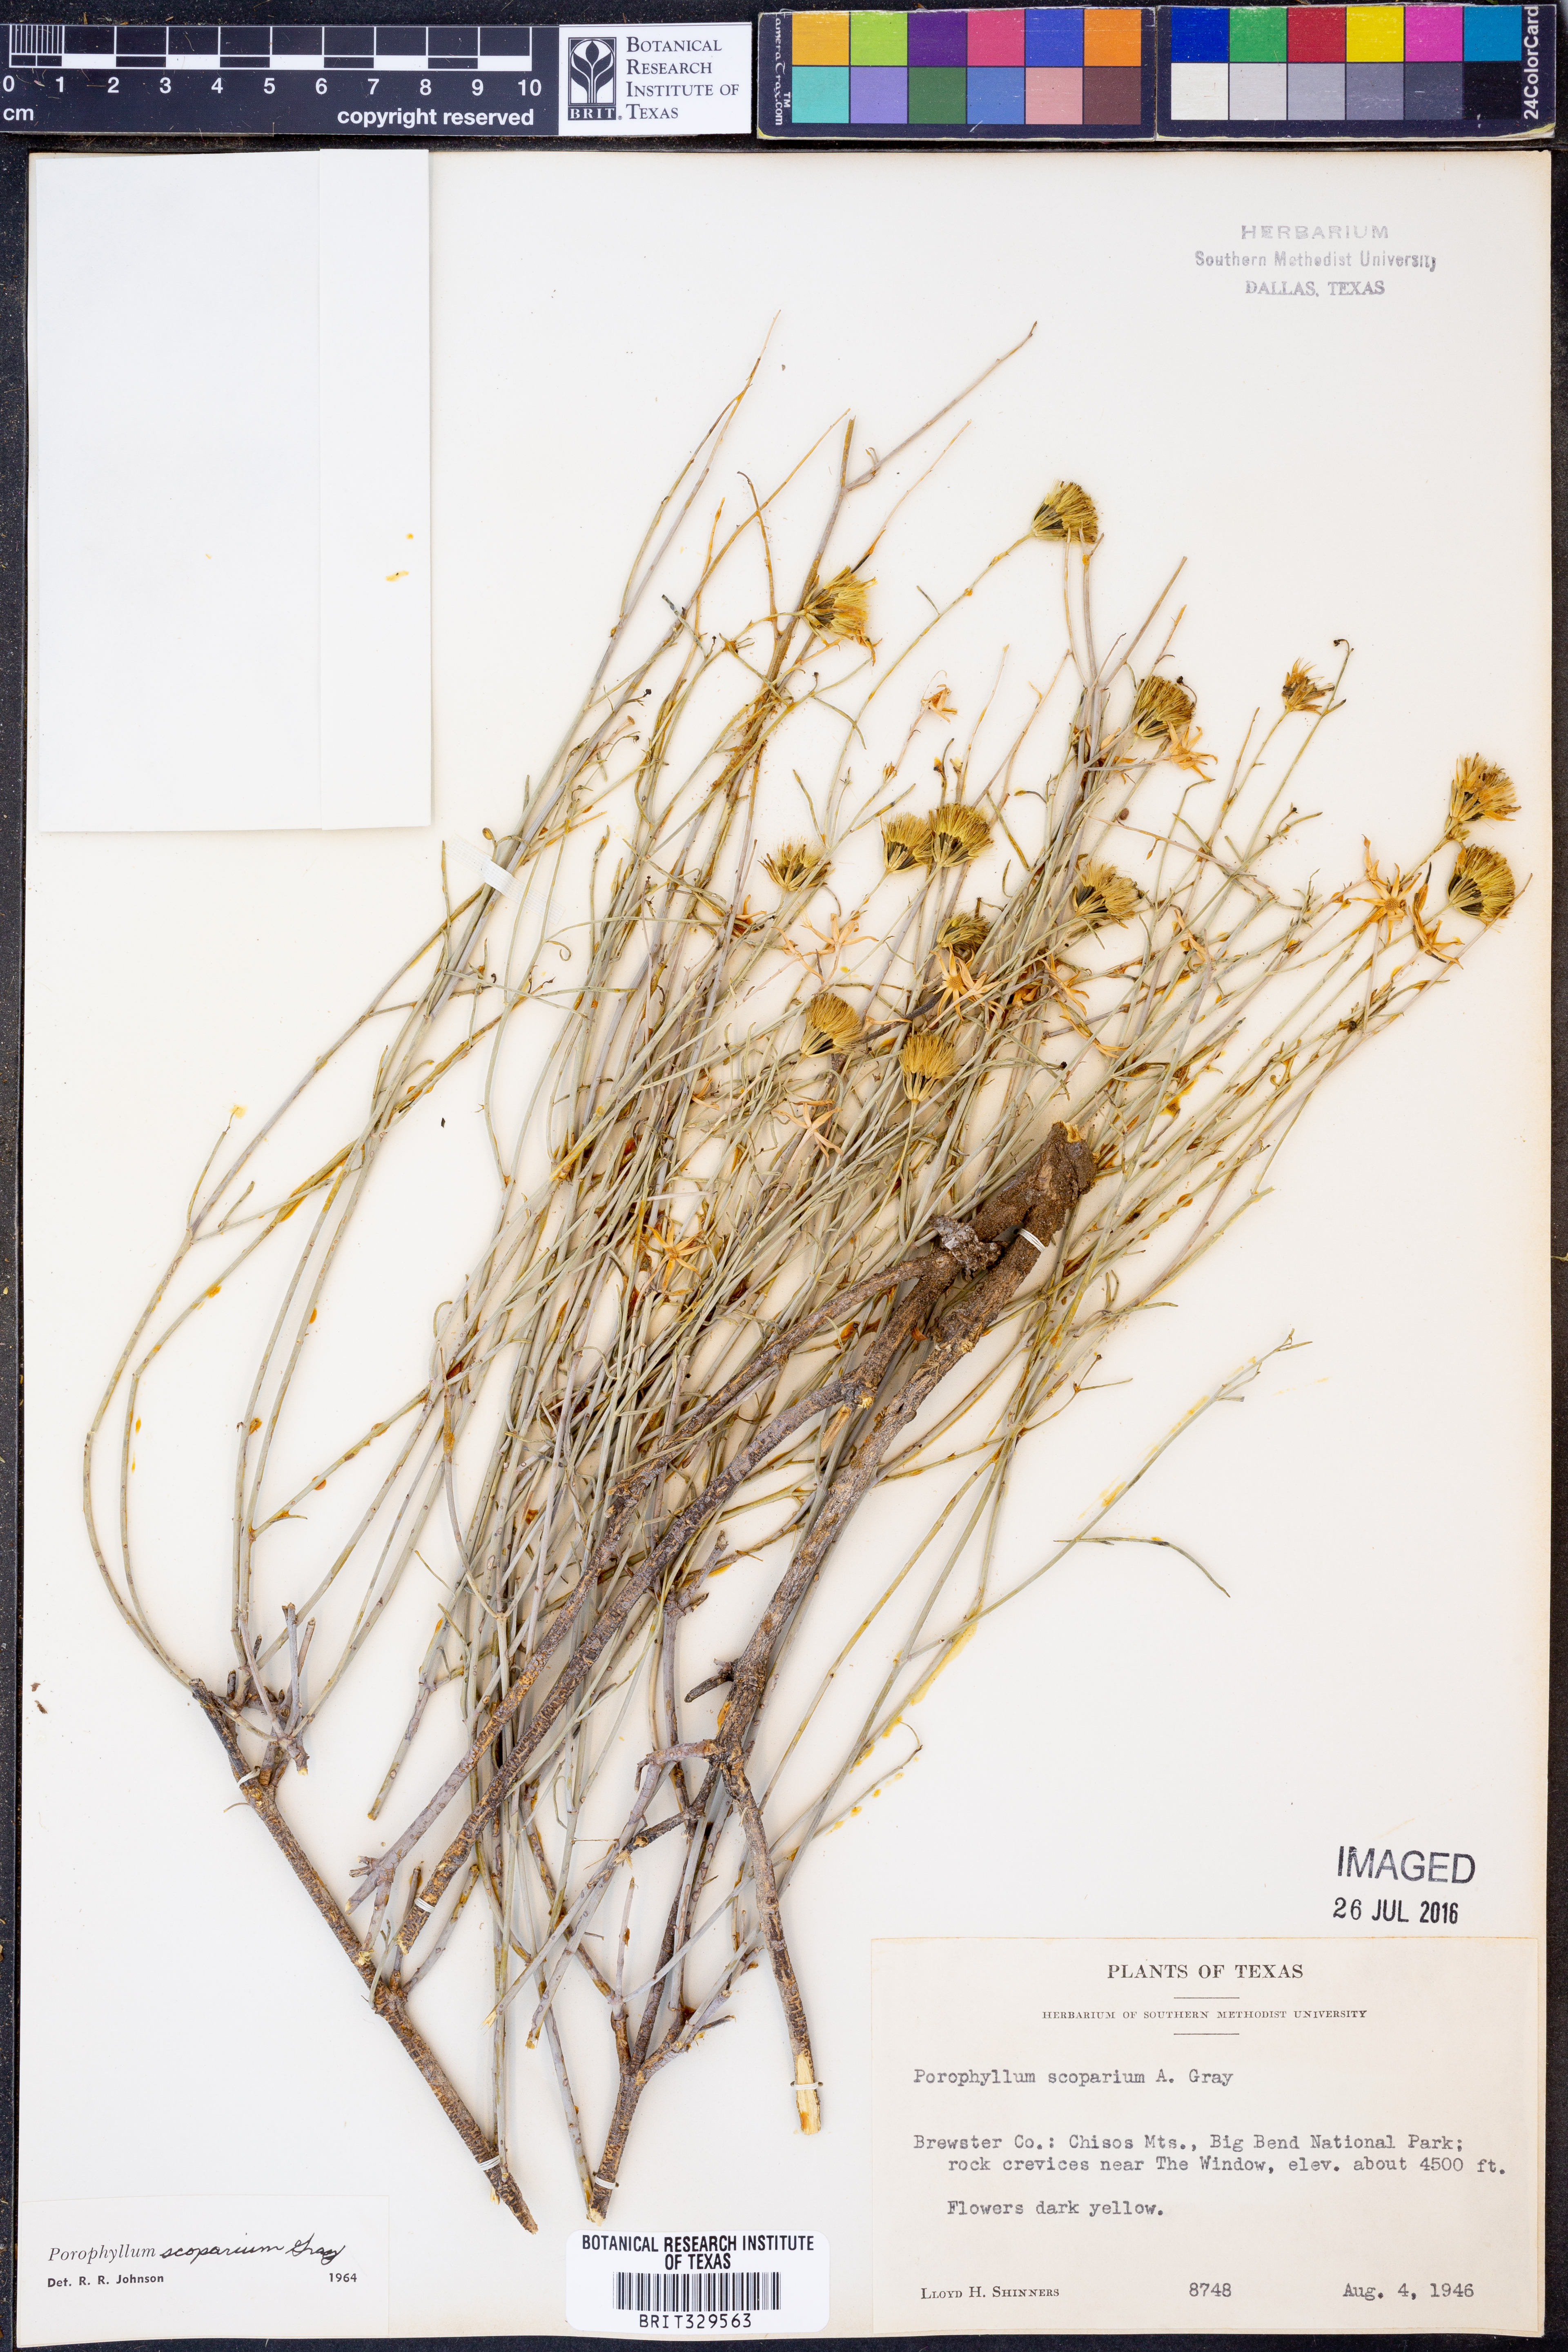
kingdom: Plantae
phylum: Tracheophyta
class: Magnoliopsida
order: Asterales
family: Asteraceae
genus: Porophyllum
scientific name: Porophyllum scoparium
